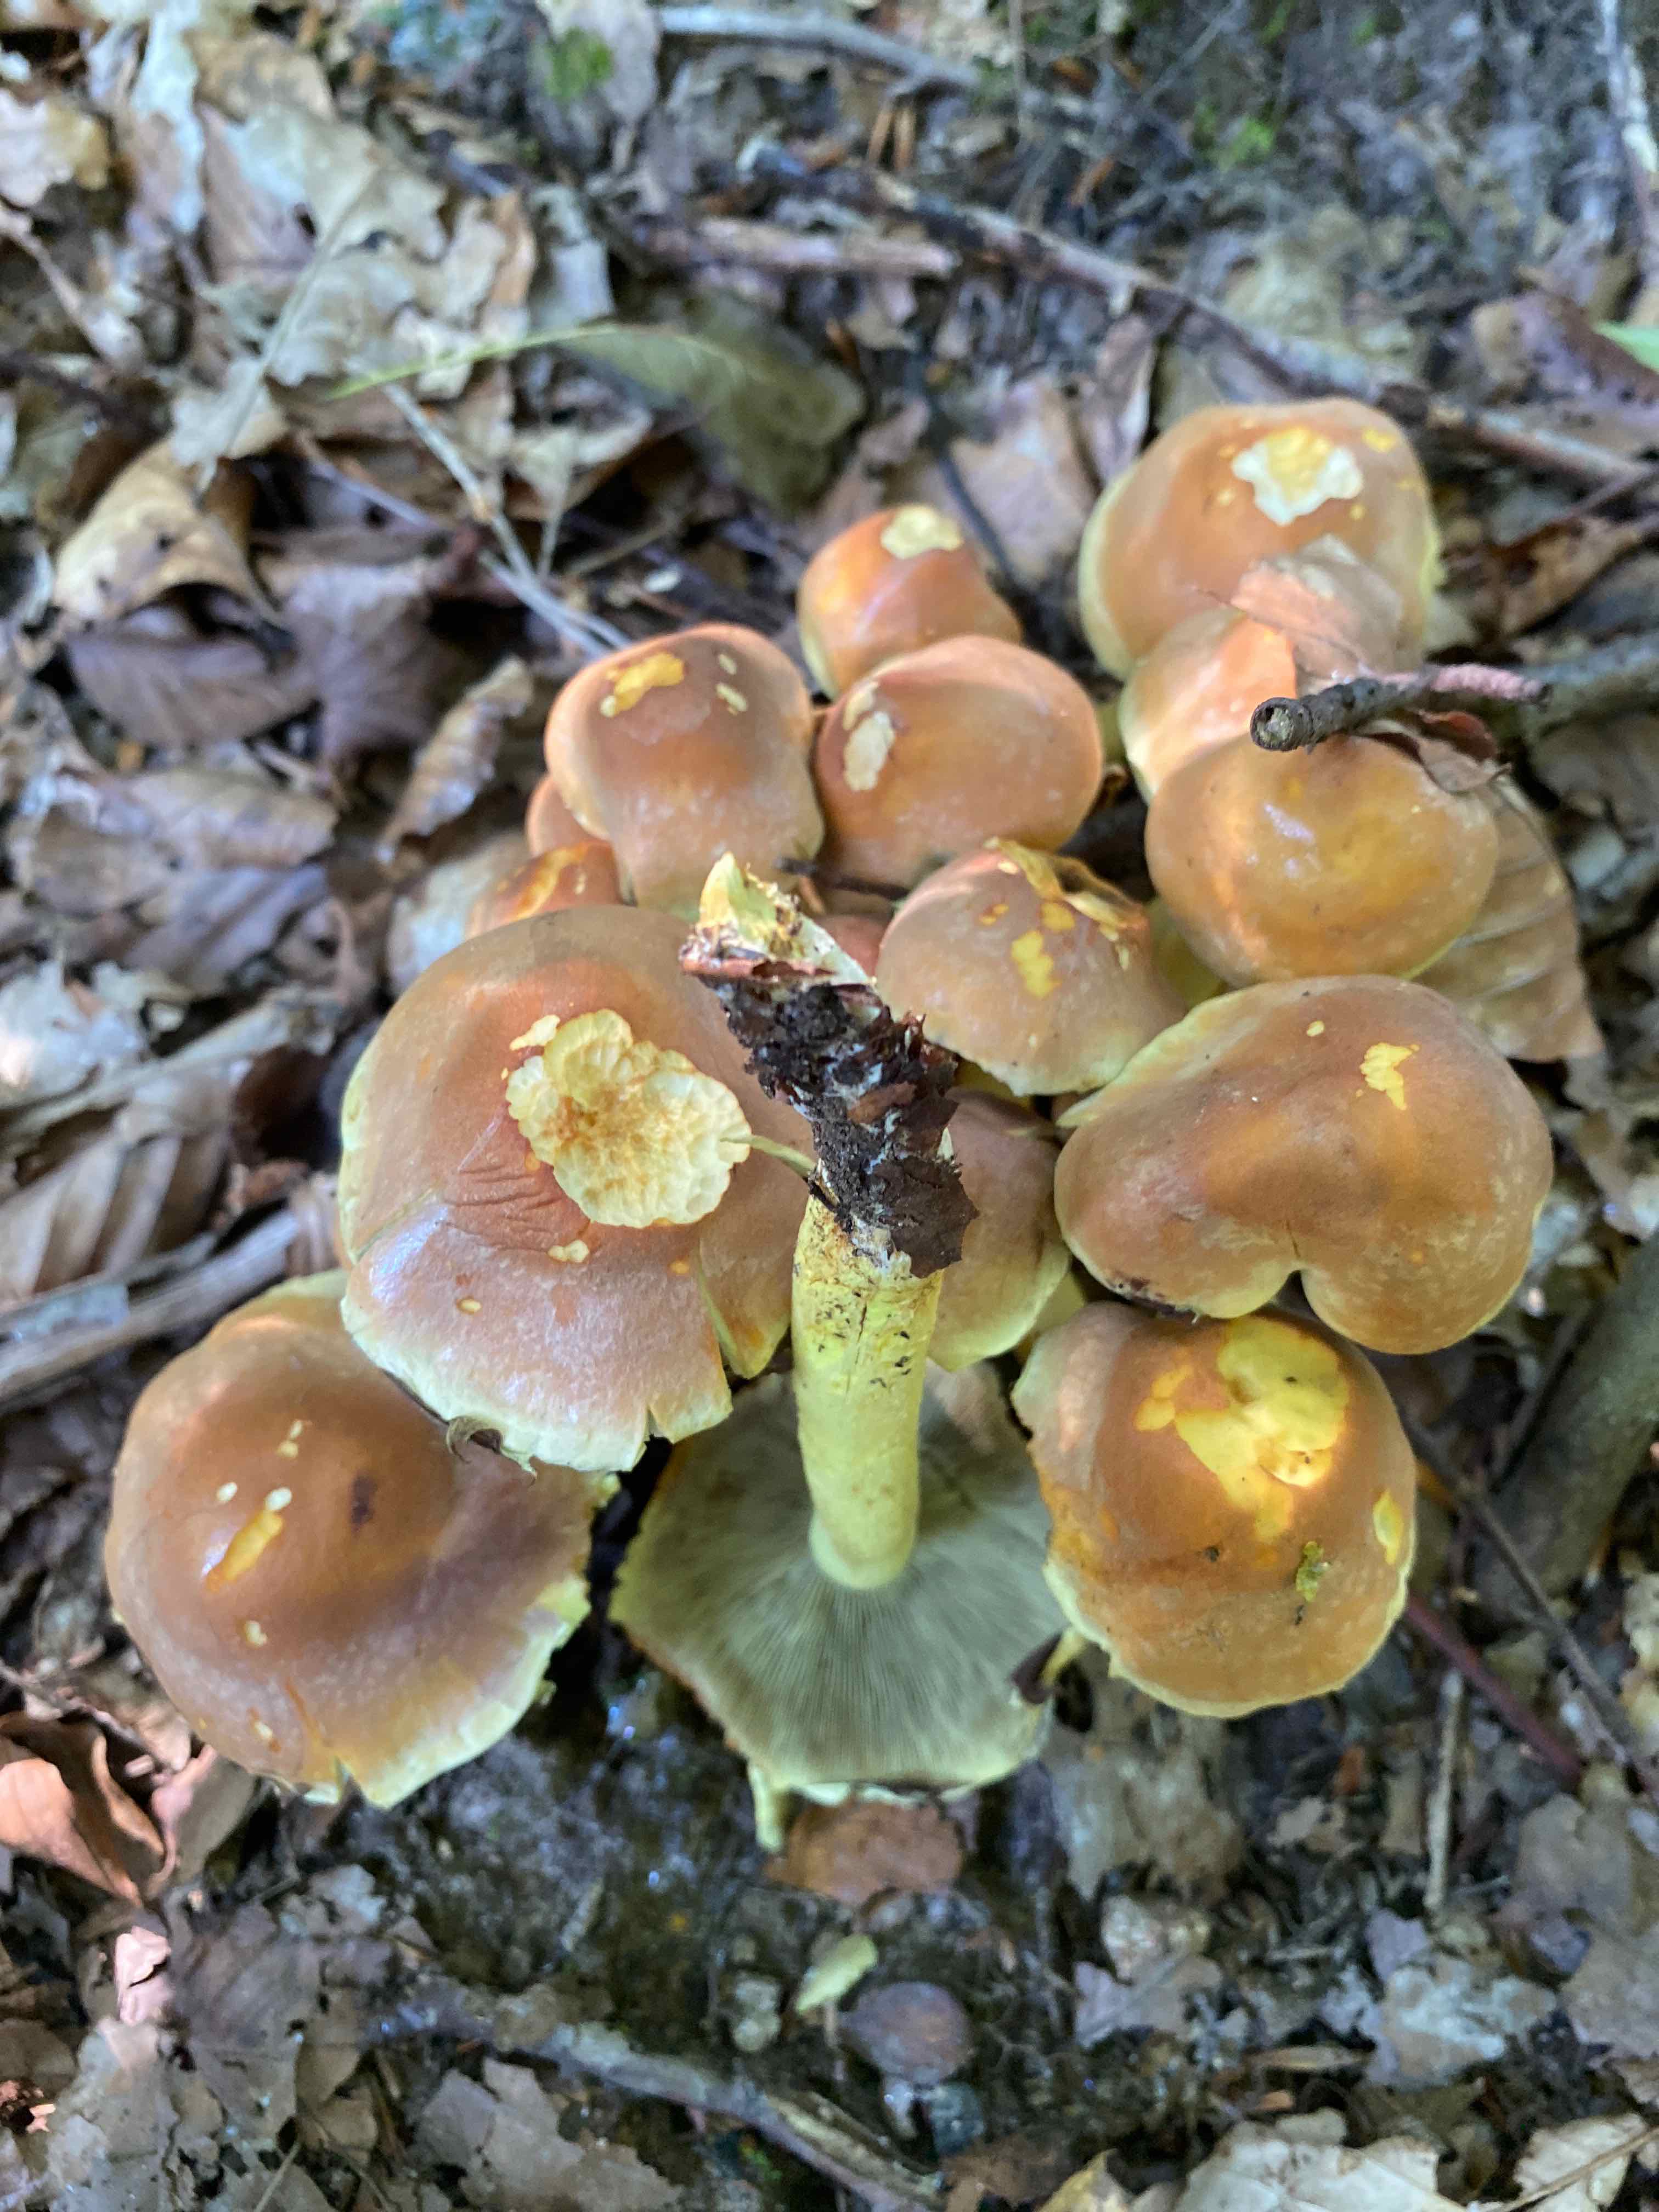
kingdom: Fungi
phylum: Basidiomycota
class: Agaricomycetes
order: Agaricales
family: Strophariaceae
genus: Hypholoma
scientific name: Hypholoma lateritium
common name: teglrød svovlhat
